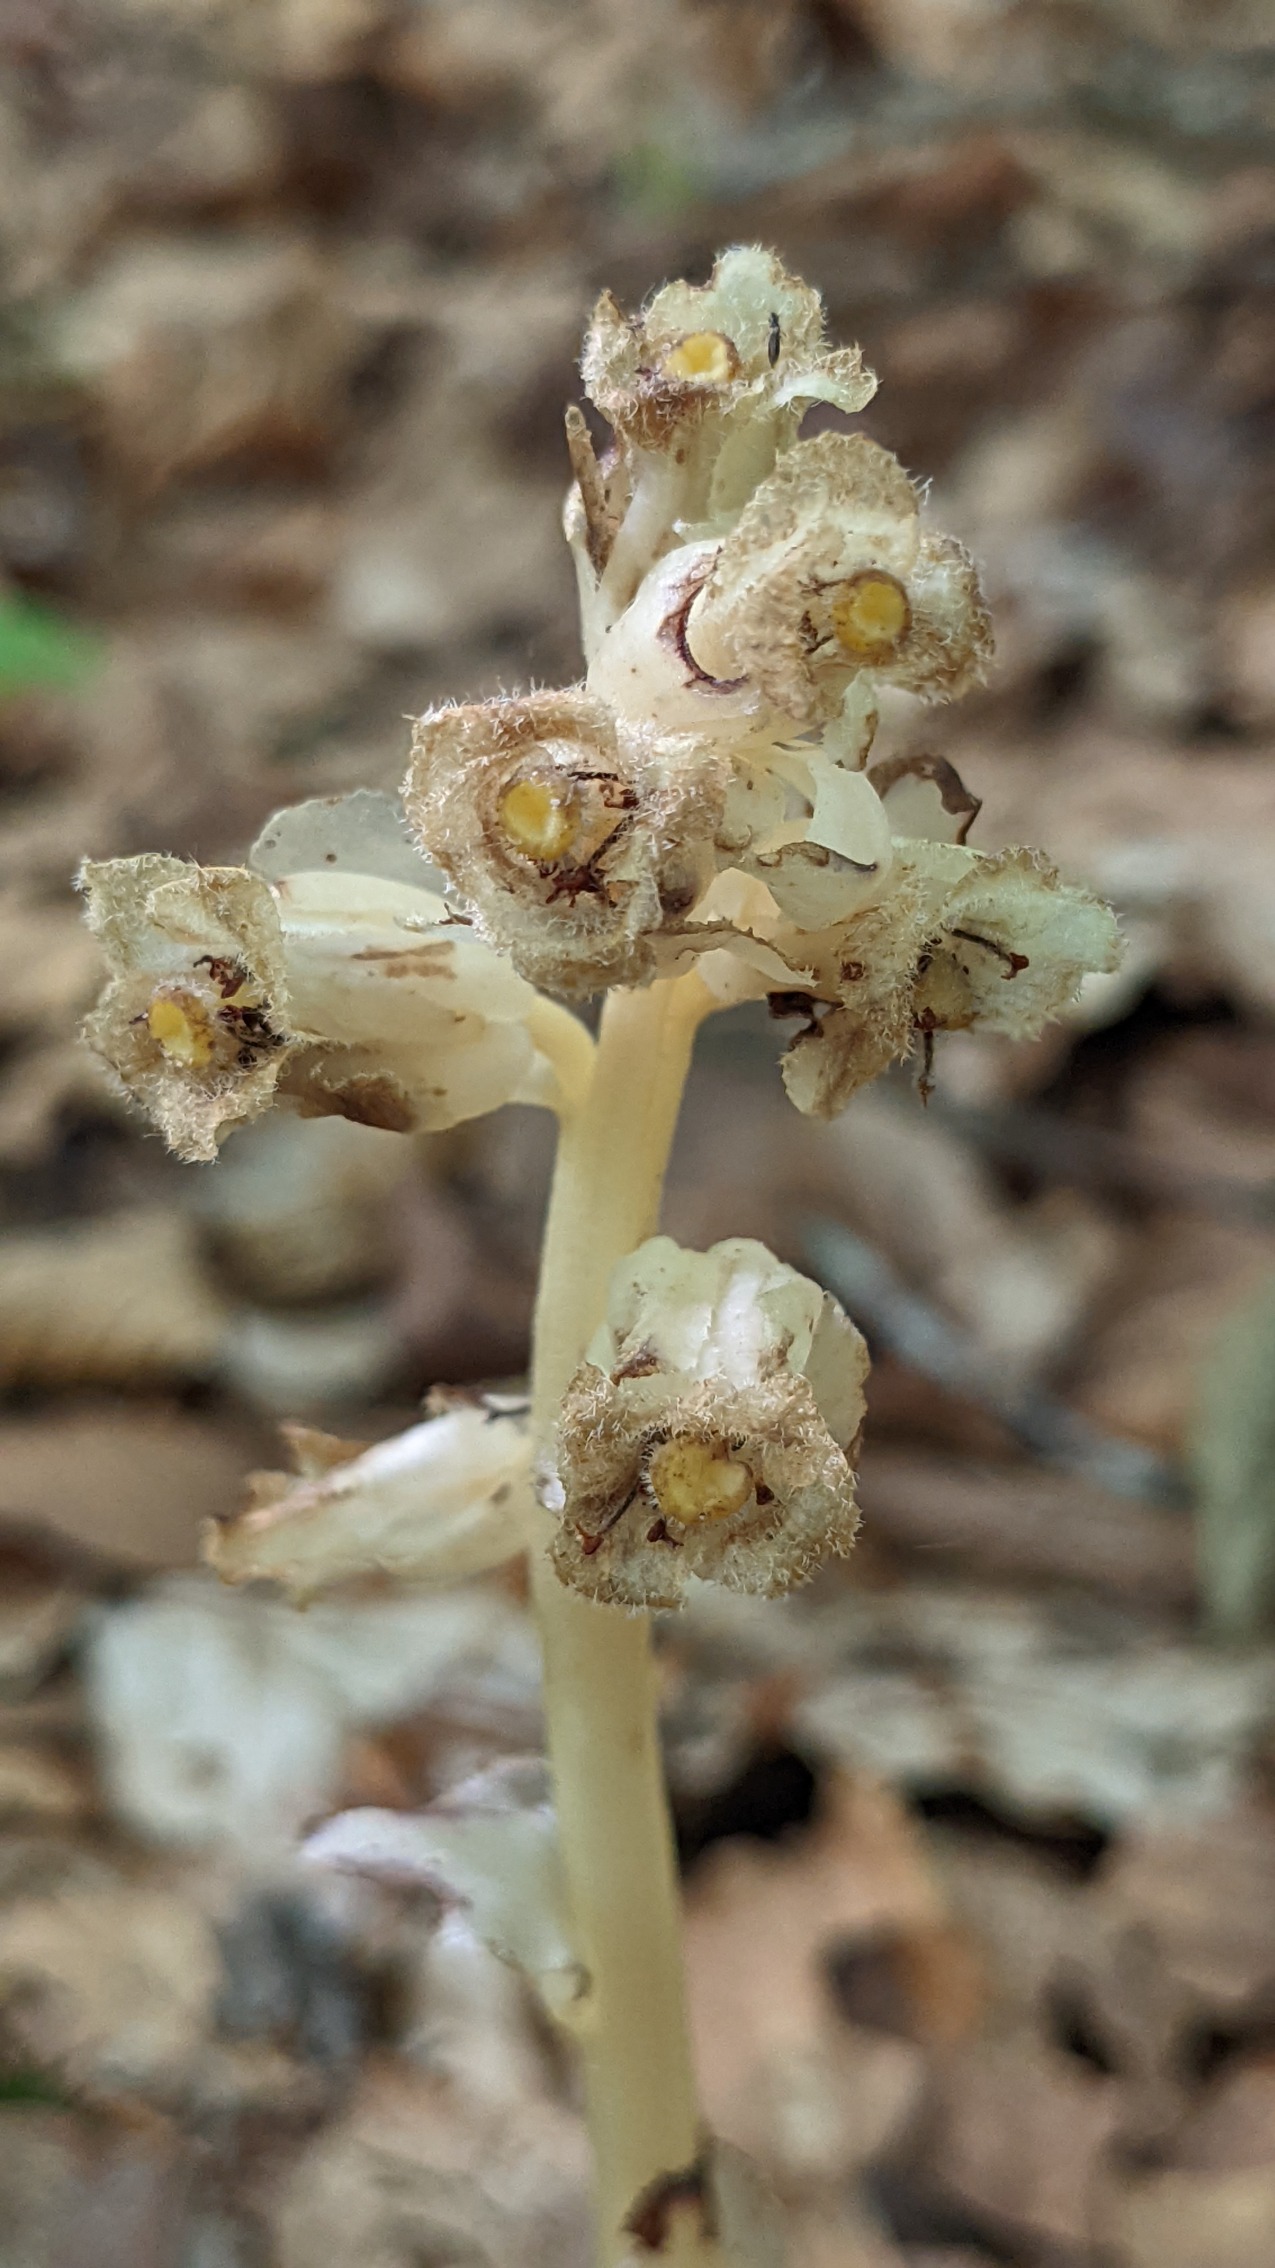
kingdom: Plantae
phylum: Tracheophyta
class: Magnoliopsida
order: Ericales
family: Ericaceae
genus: Hypopitys
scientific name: Hypopitys monotropa
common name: Håret snylterod
